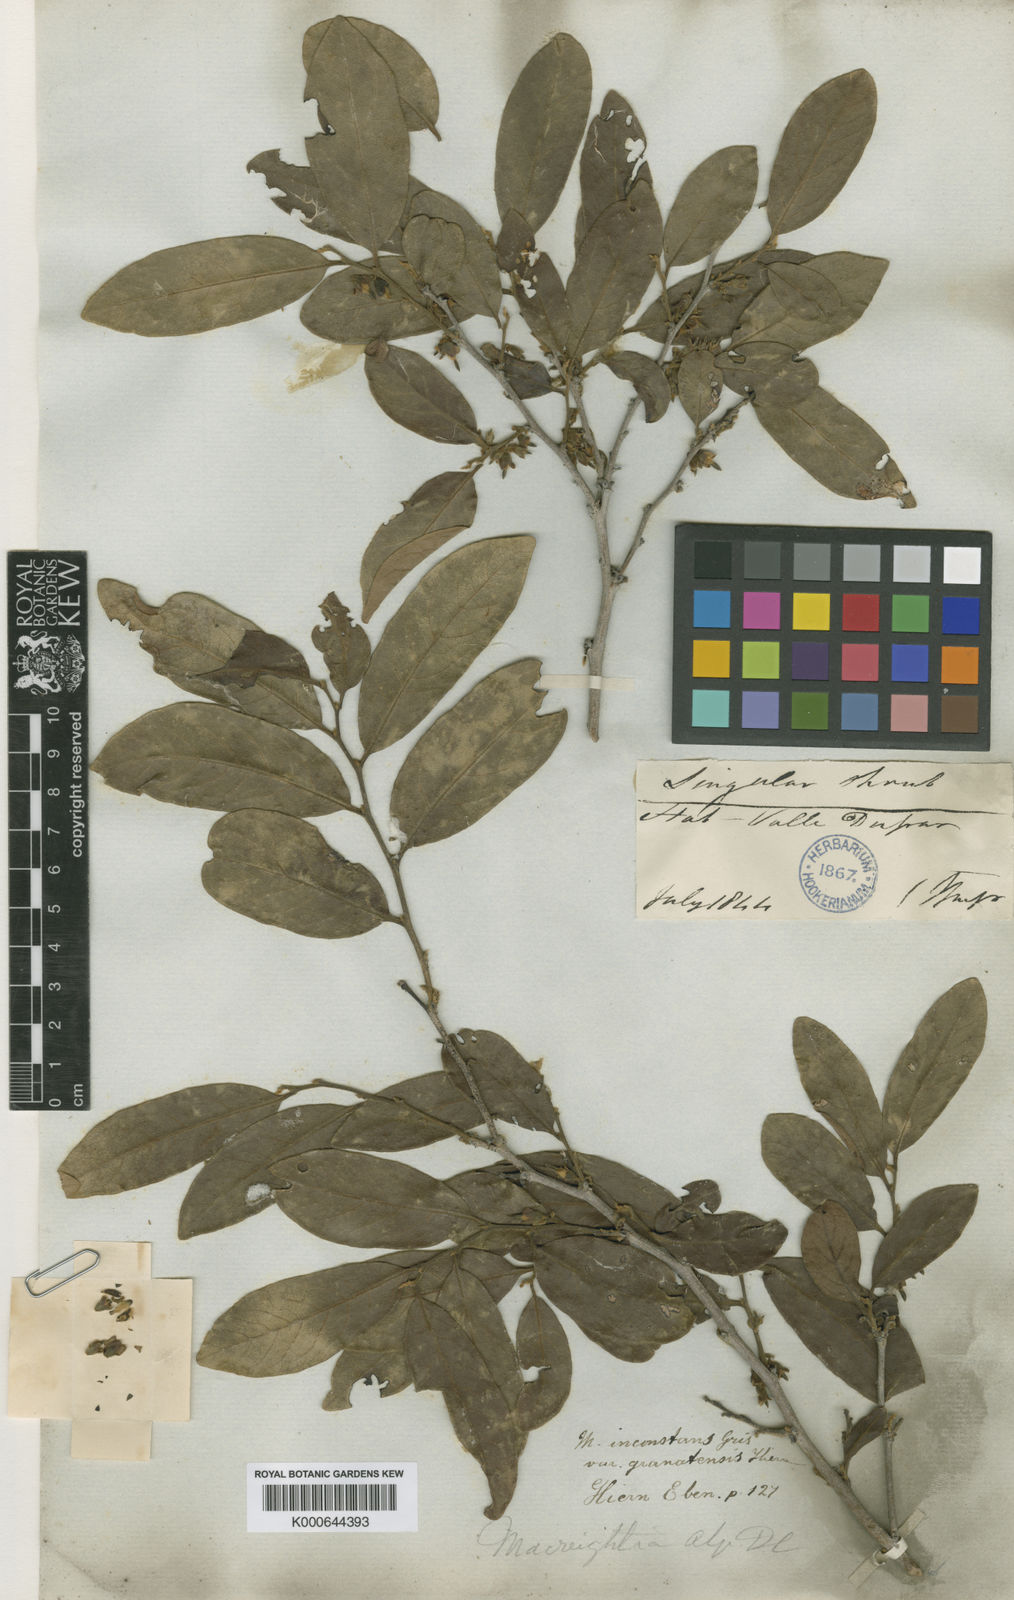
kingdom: Plantae
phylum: Tracheophyta
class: Magnoliopsida
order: Ericales
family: Ebenaceae
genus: Diospyros
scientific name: Diospyros inconstans
